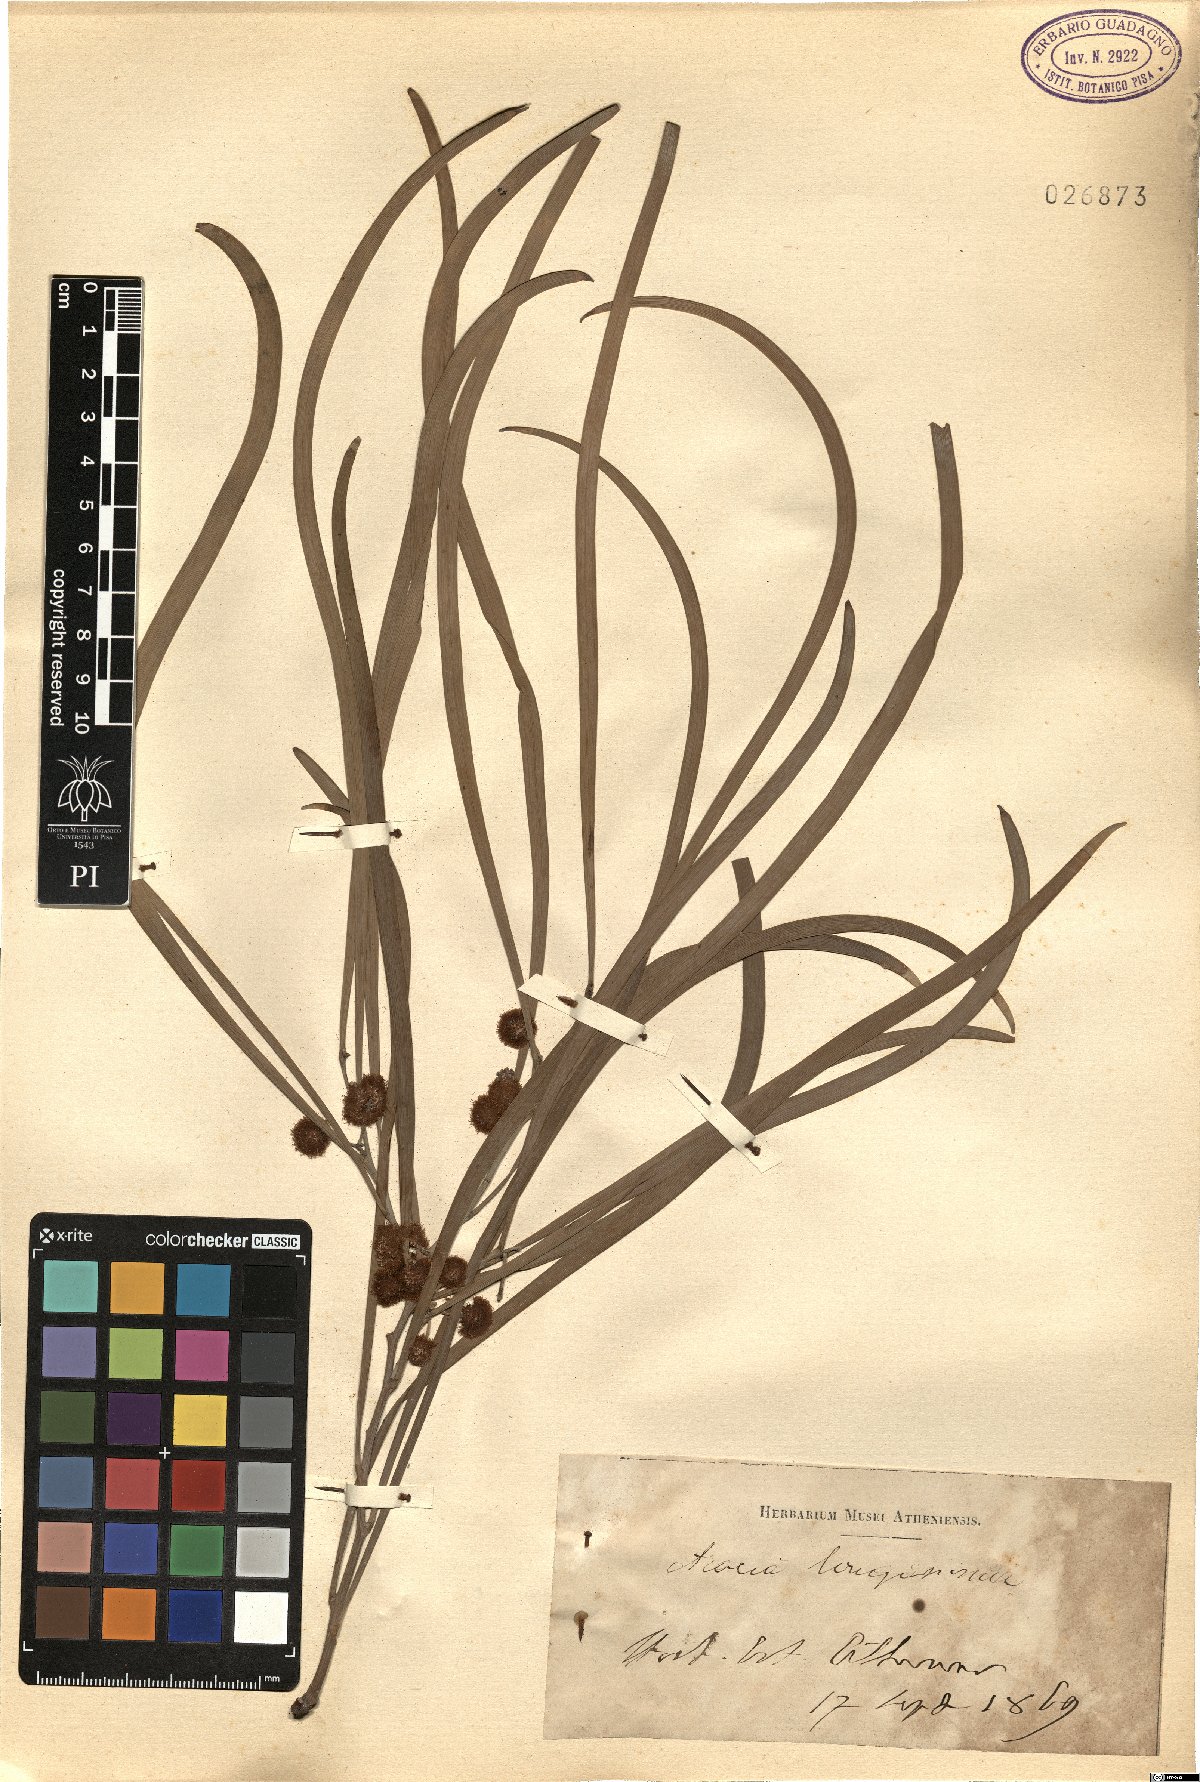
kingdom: Plantae
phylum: Tracheophyta
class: Magnoliopsida
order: Fabales
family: Fabaceae
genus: Acacia
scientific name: Acacia provincialis
